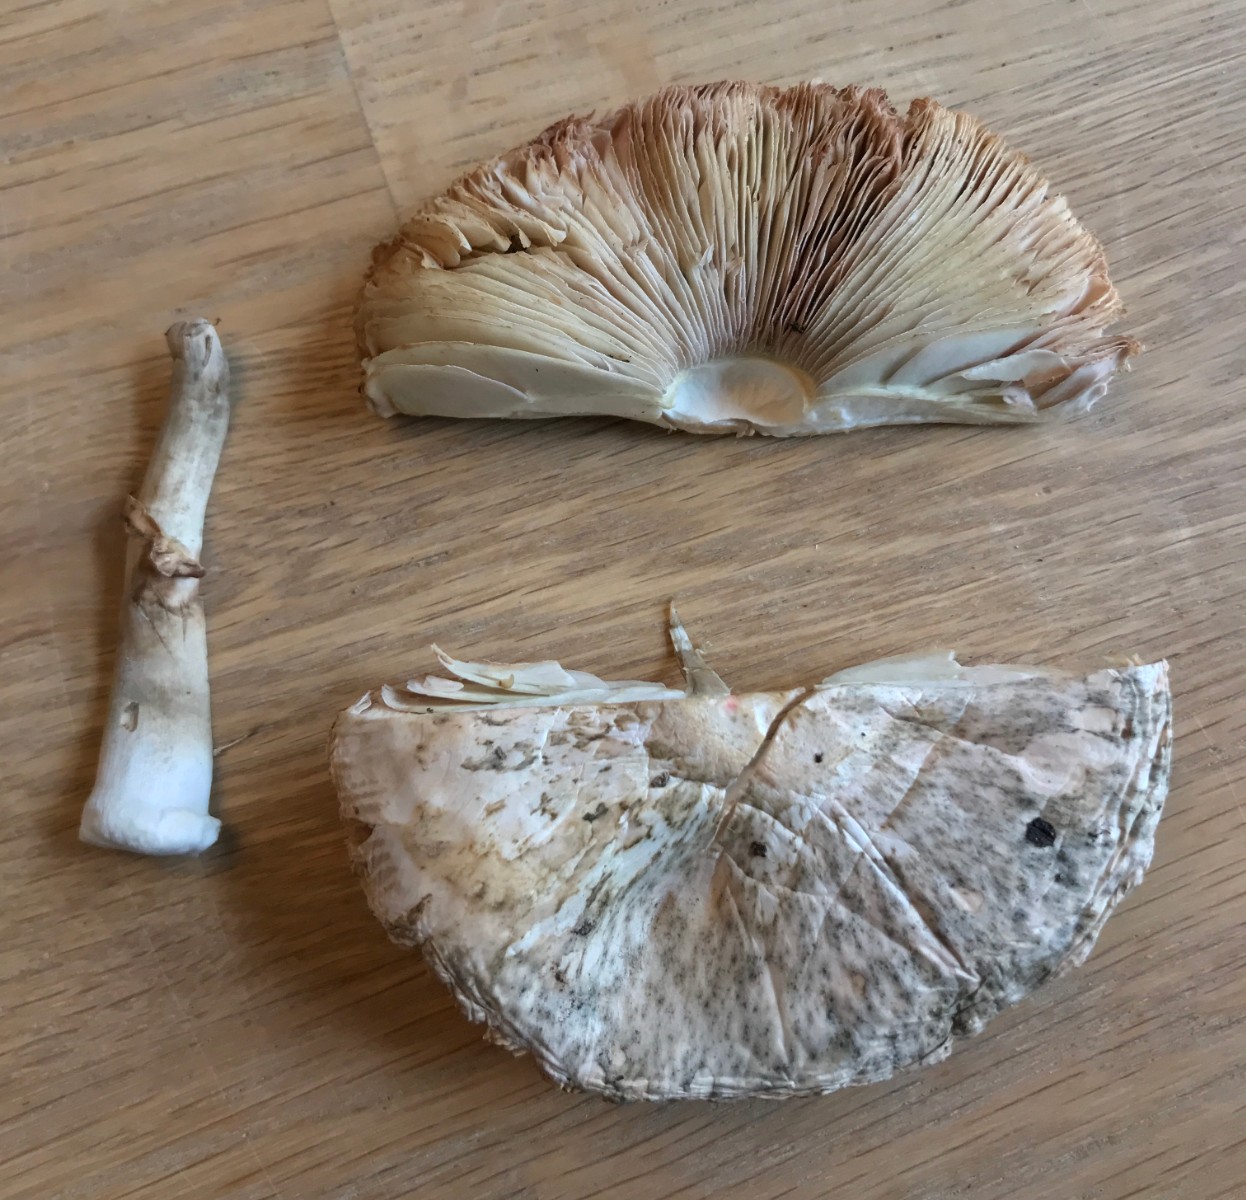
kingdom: Fungi
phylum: Basidiomycota
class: Agaricomycetes
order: Agaricales
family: Agaricaceae
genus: Leucoagaricus
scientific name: Leucoagaricus leucothites
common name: rosabladet silkehat
